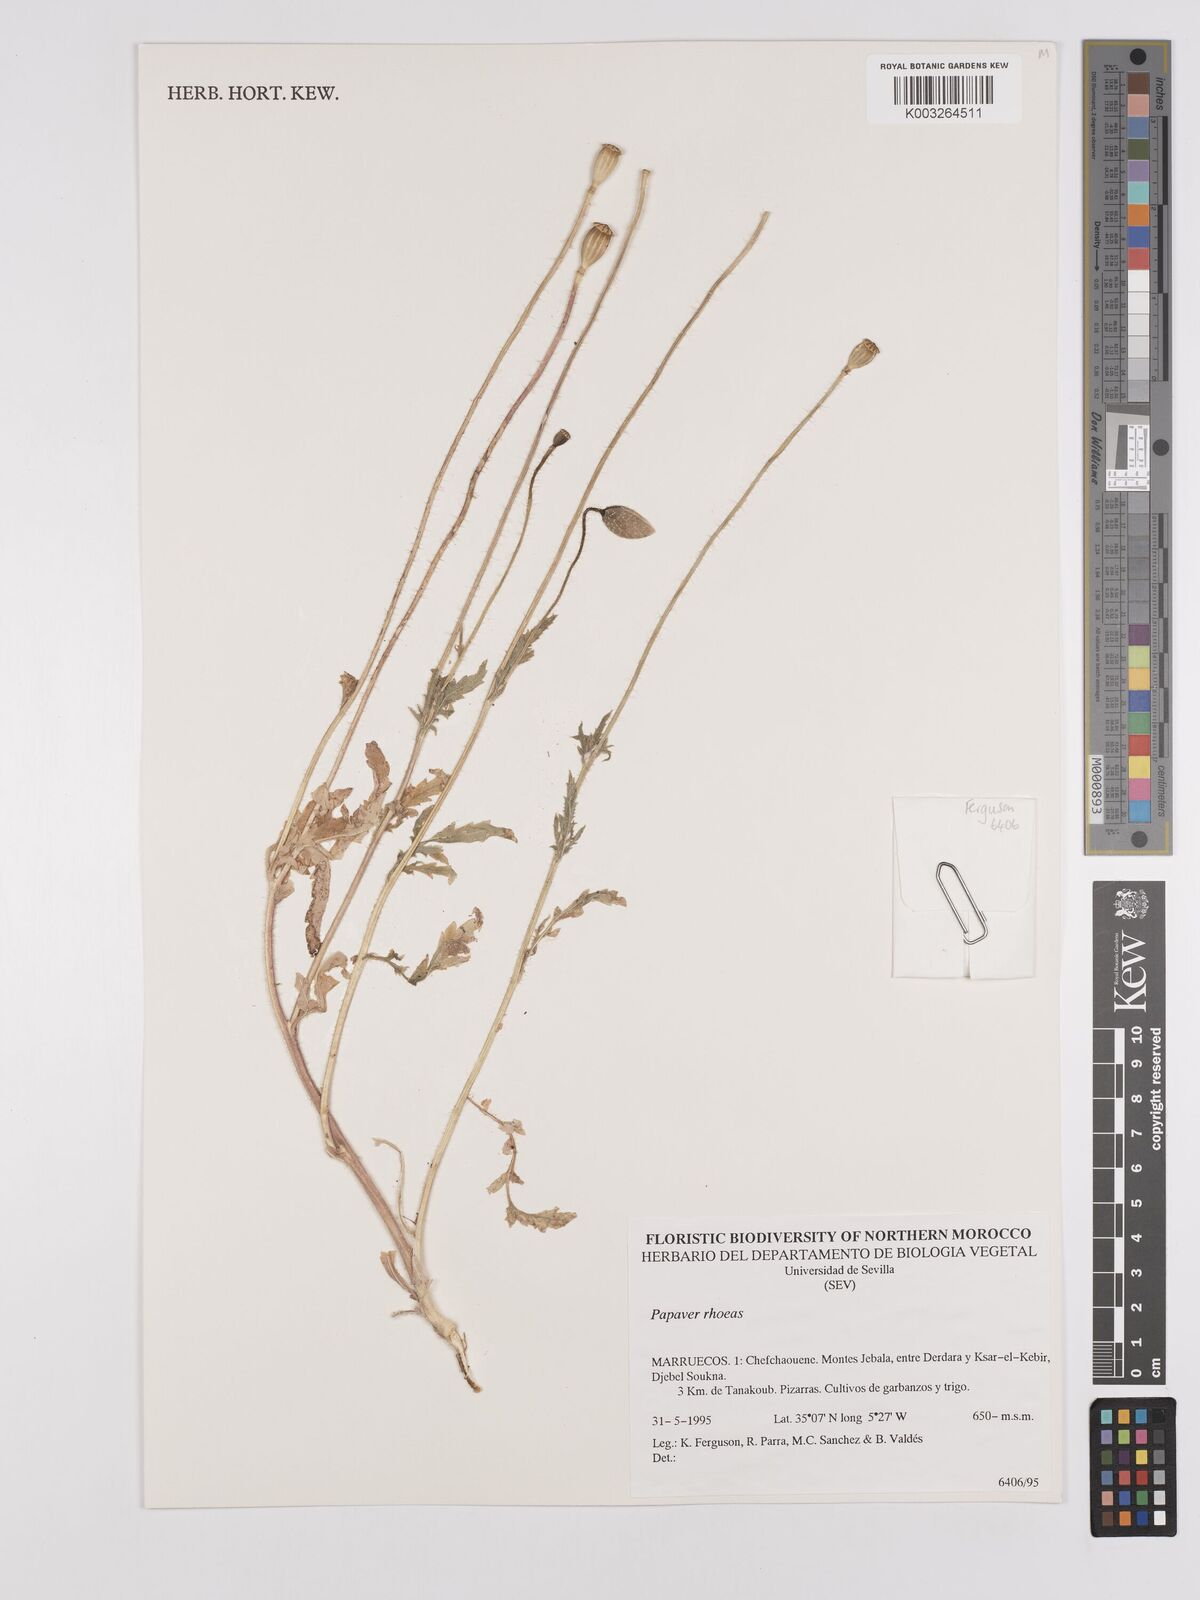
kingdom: Plantae
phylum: Tracheophyta
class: Magnoliopsida
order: Ranunculales
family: Papaveraceae
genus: Papaver
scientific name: Papaver rhoeas
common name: Corn poppy
